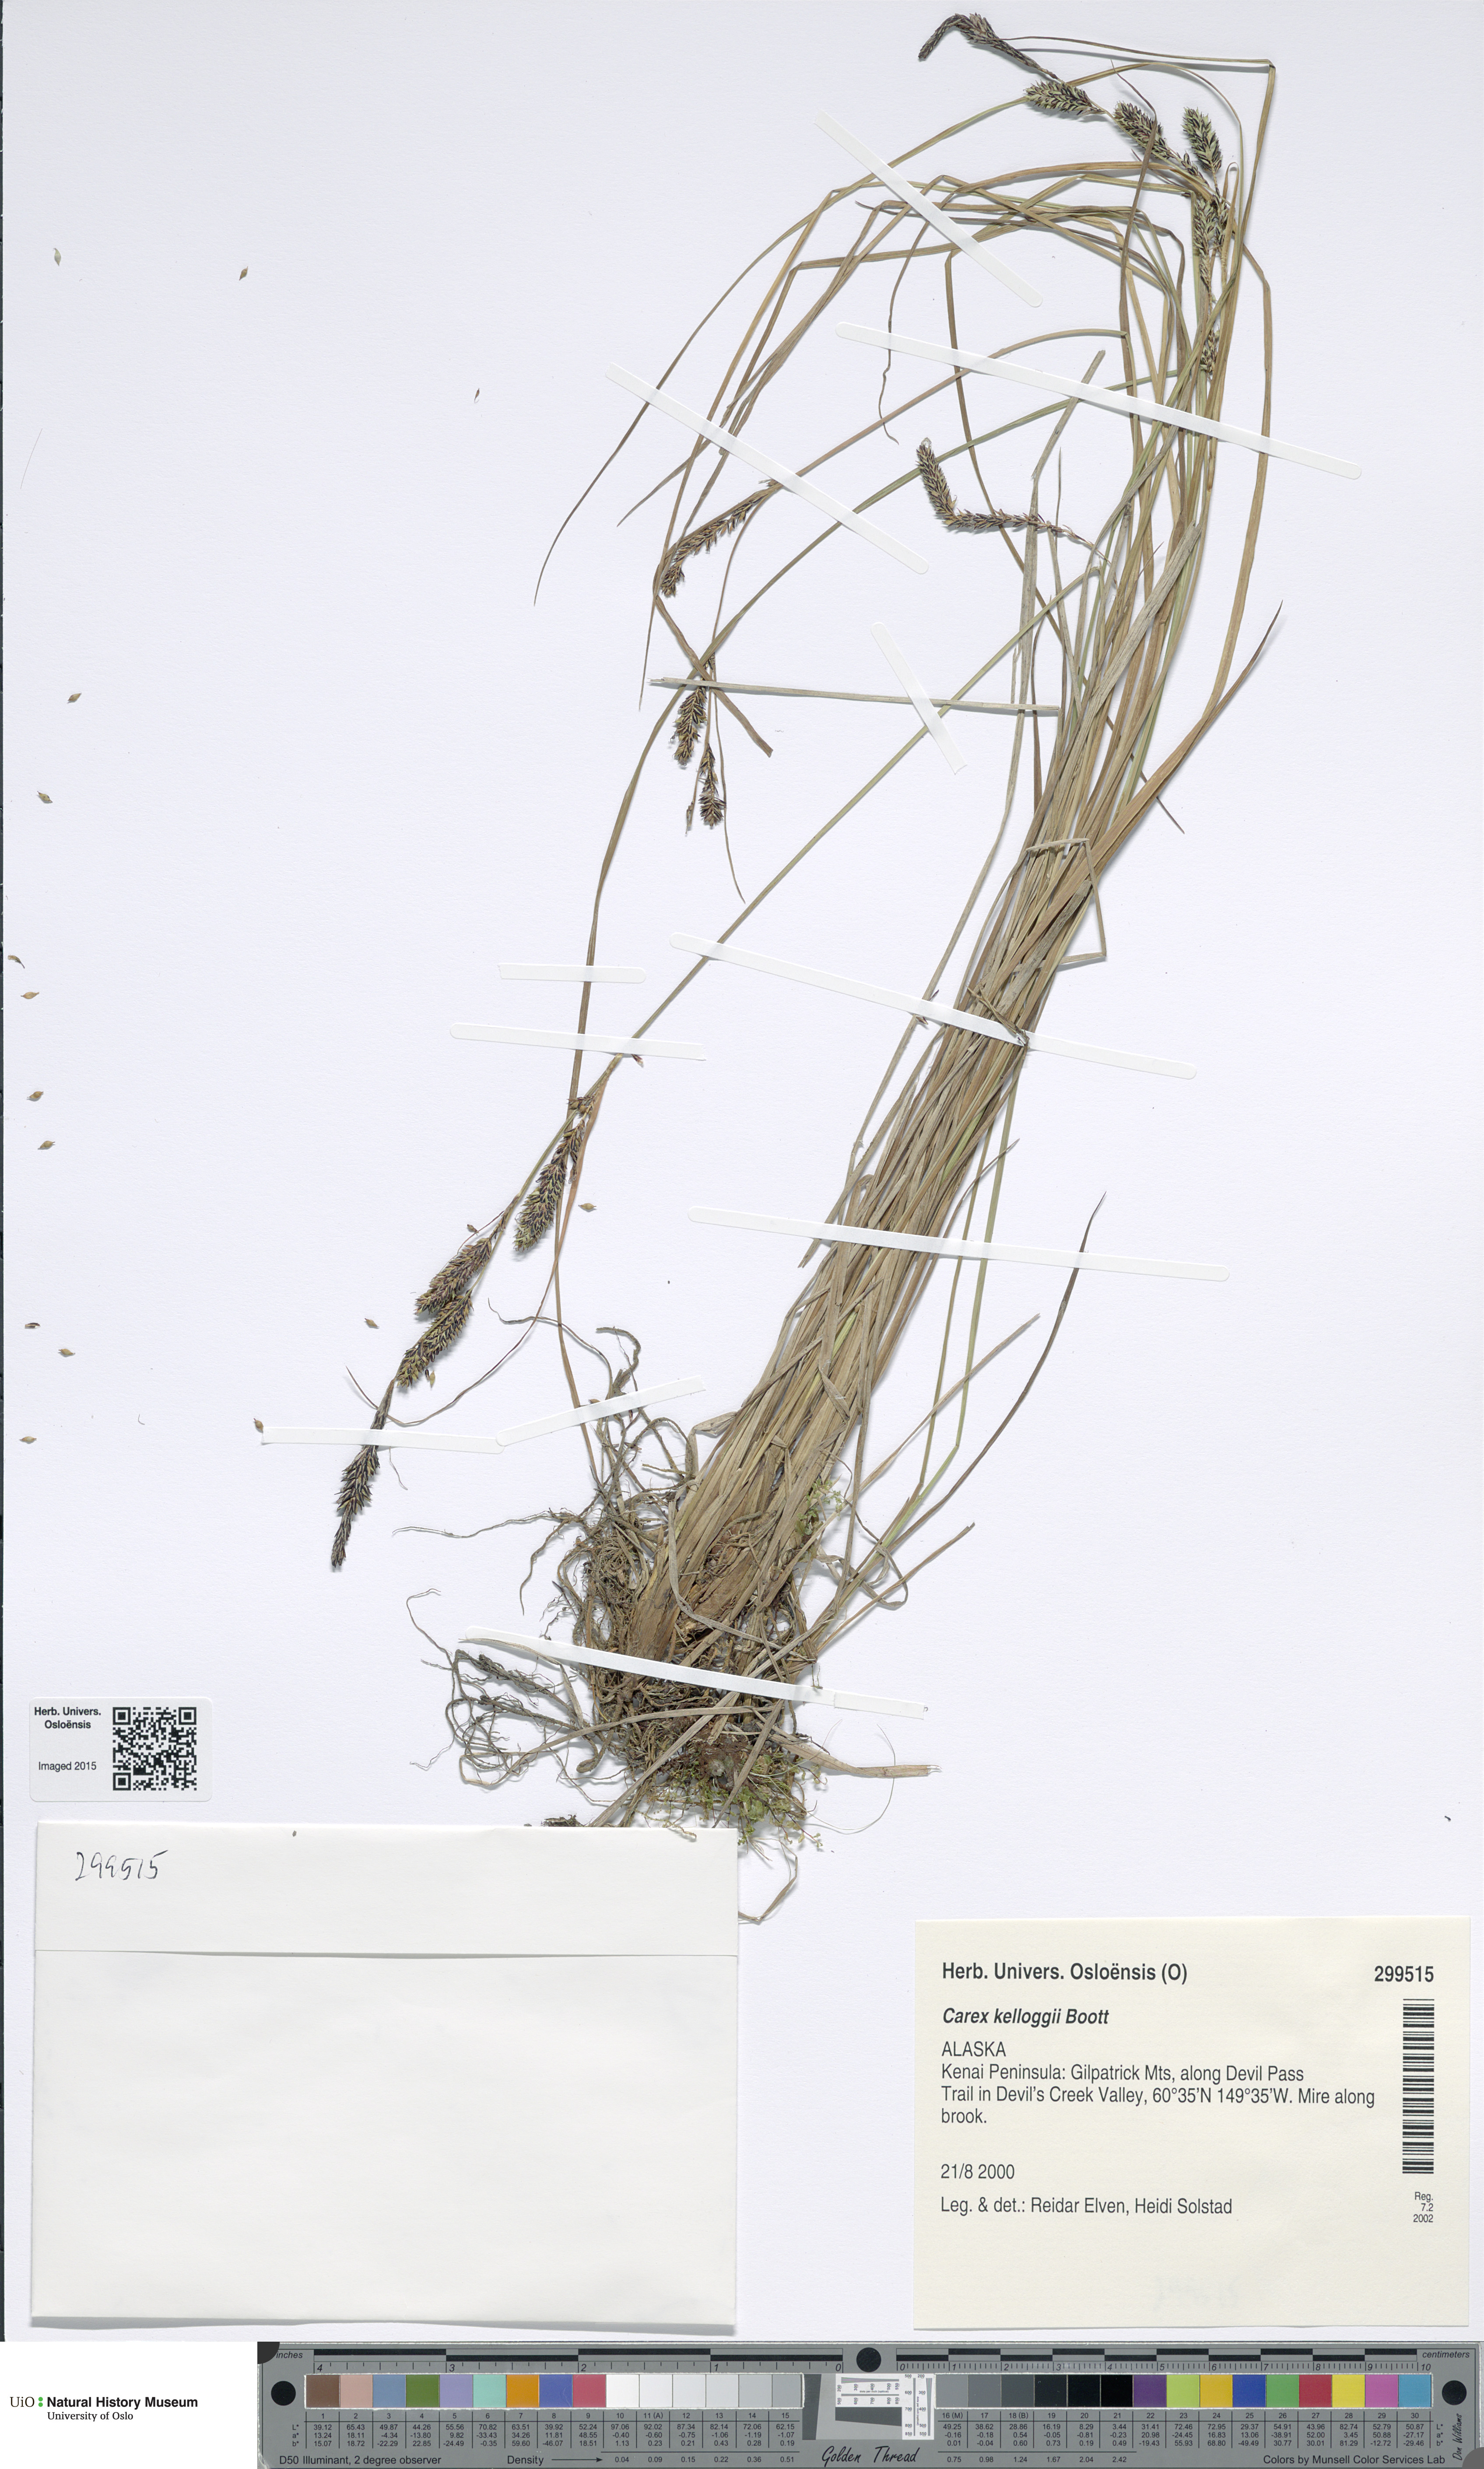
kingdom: Plantae
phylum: Tracheophyta
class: Liliopsida
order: Poales
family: Cyperaceae
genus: Carex
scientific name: Carex kelloggii
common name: Kellogg's sedge
